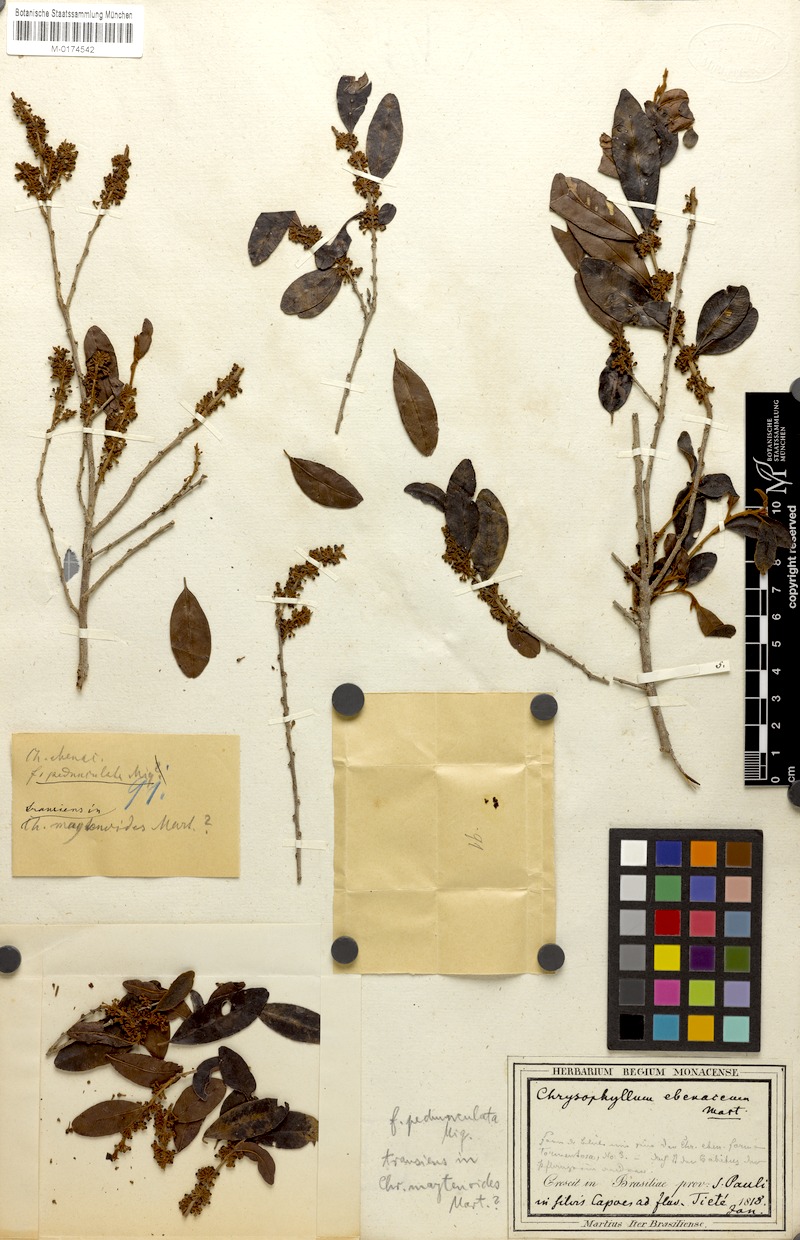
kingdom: Plantae
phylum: Tracheophyta
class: Magnoliopsida
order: Ericales
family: Sapotaceae
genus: Chrysophyllum
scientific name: Chrysophyllum marginatum
